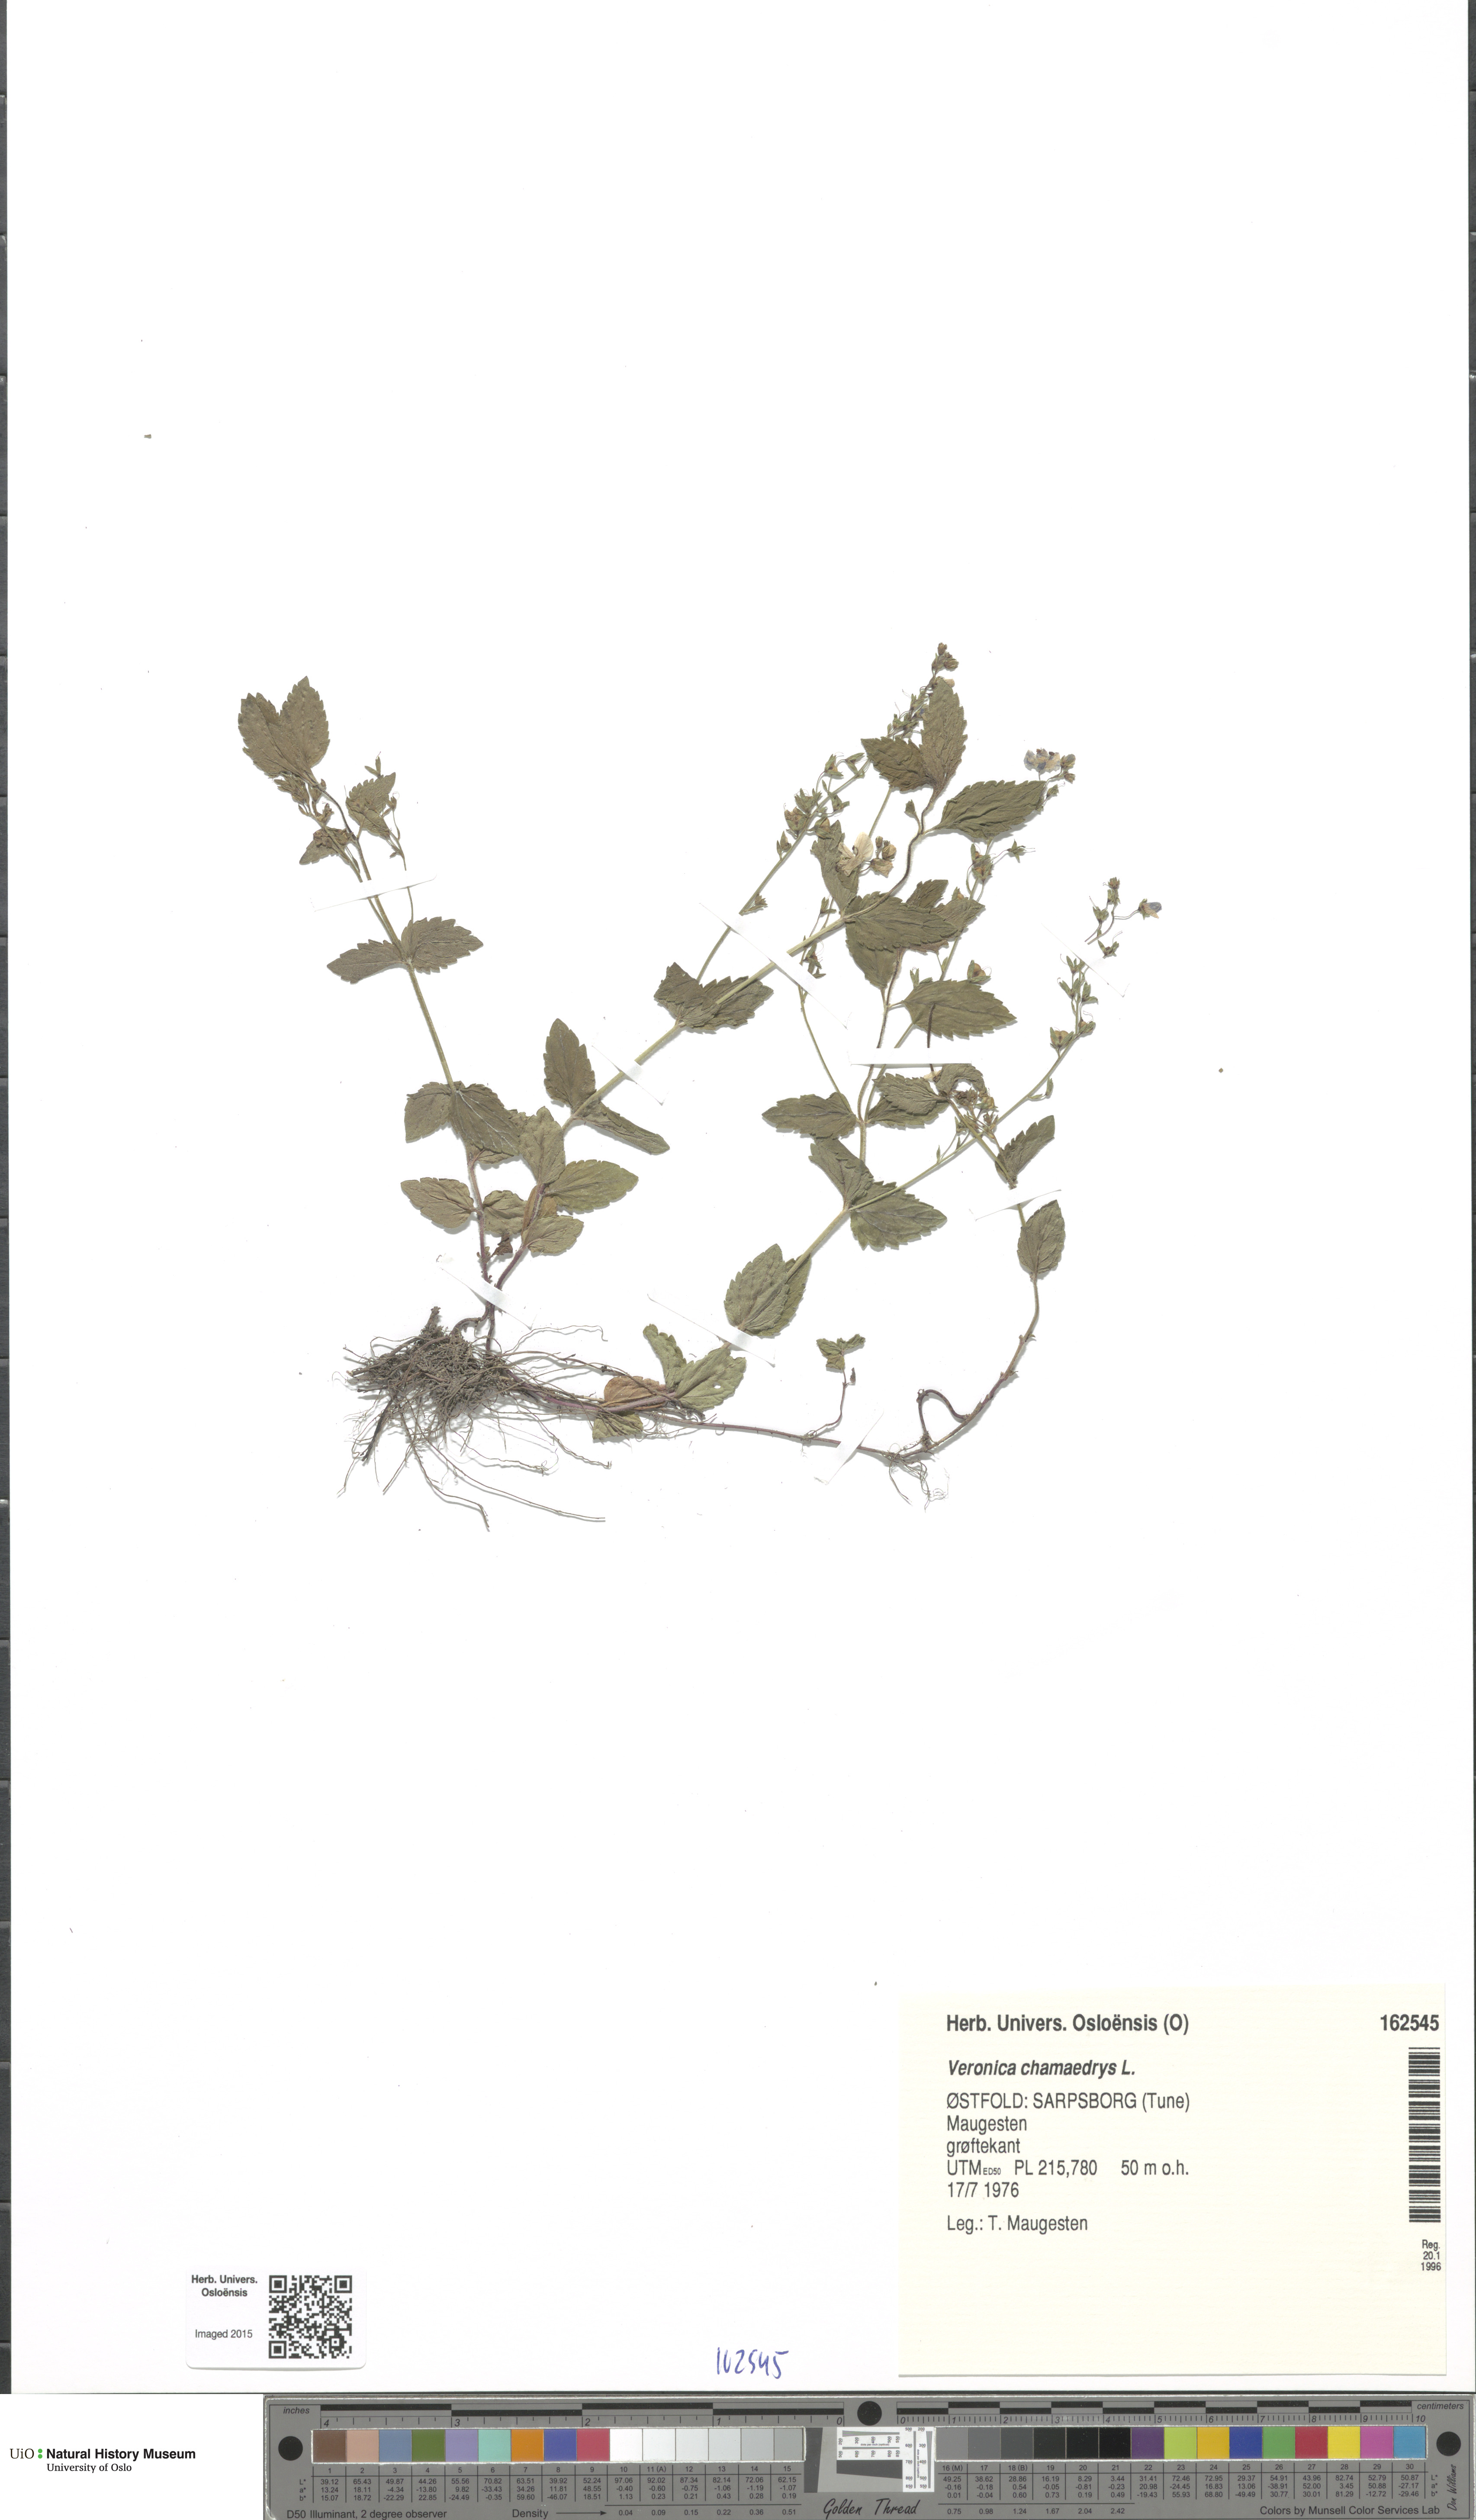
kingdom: Plantae
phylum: Tracheophyta
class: Magnoliopsida
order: Lamiales
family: Plantaginaceae
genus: Veronica
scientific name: Veronica chamaedrys
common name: Germander speedwell
